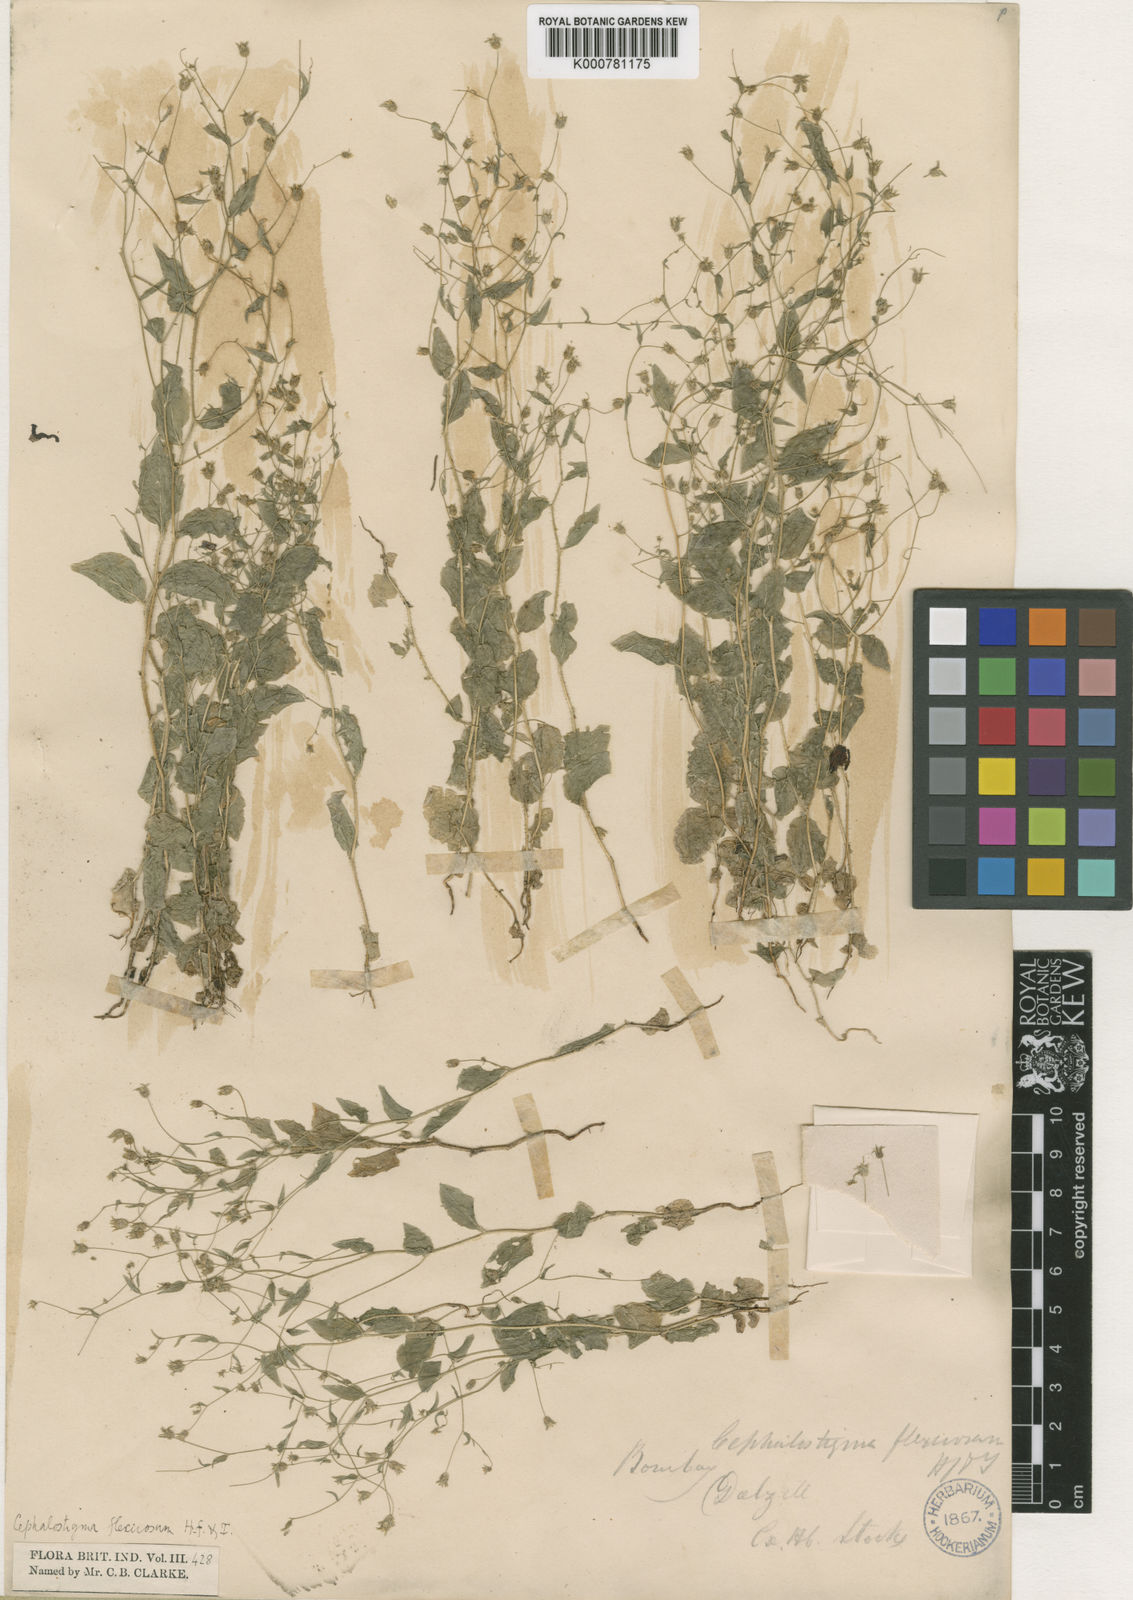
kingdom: Plantae
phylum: Tracheophyta
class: Magnoliopsida
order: Asterales
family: Campanulaceae
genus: Wahlenbergia
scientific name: Wahlenbergia flexuosa
